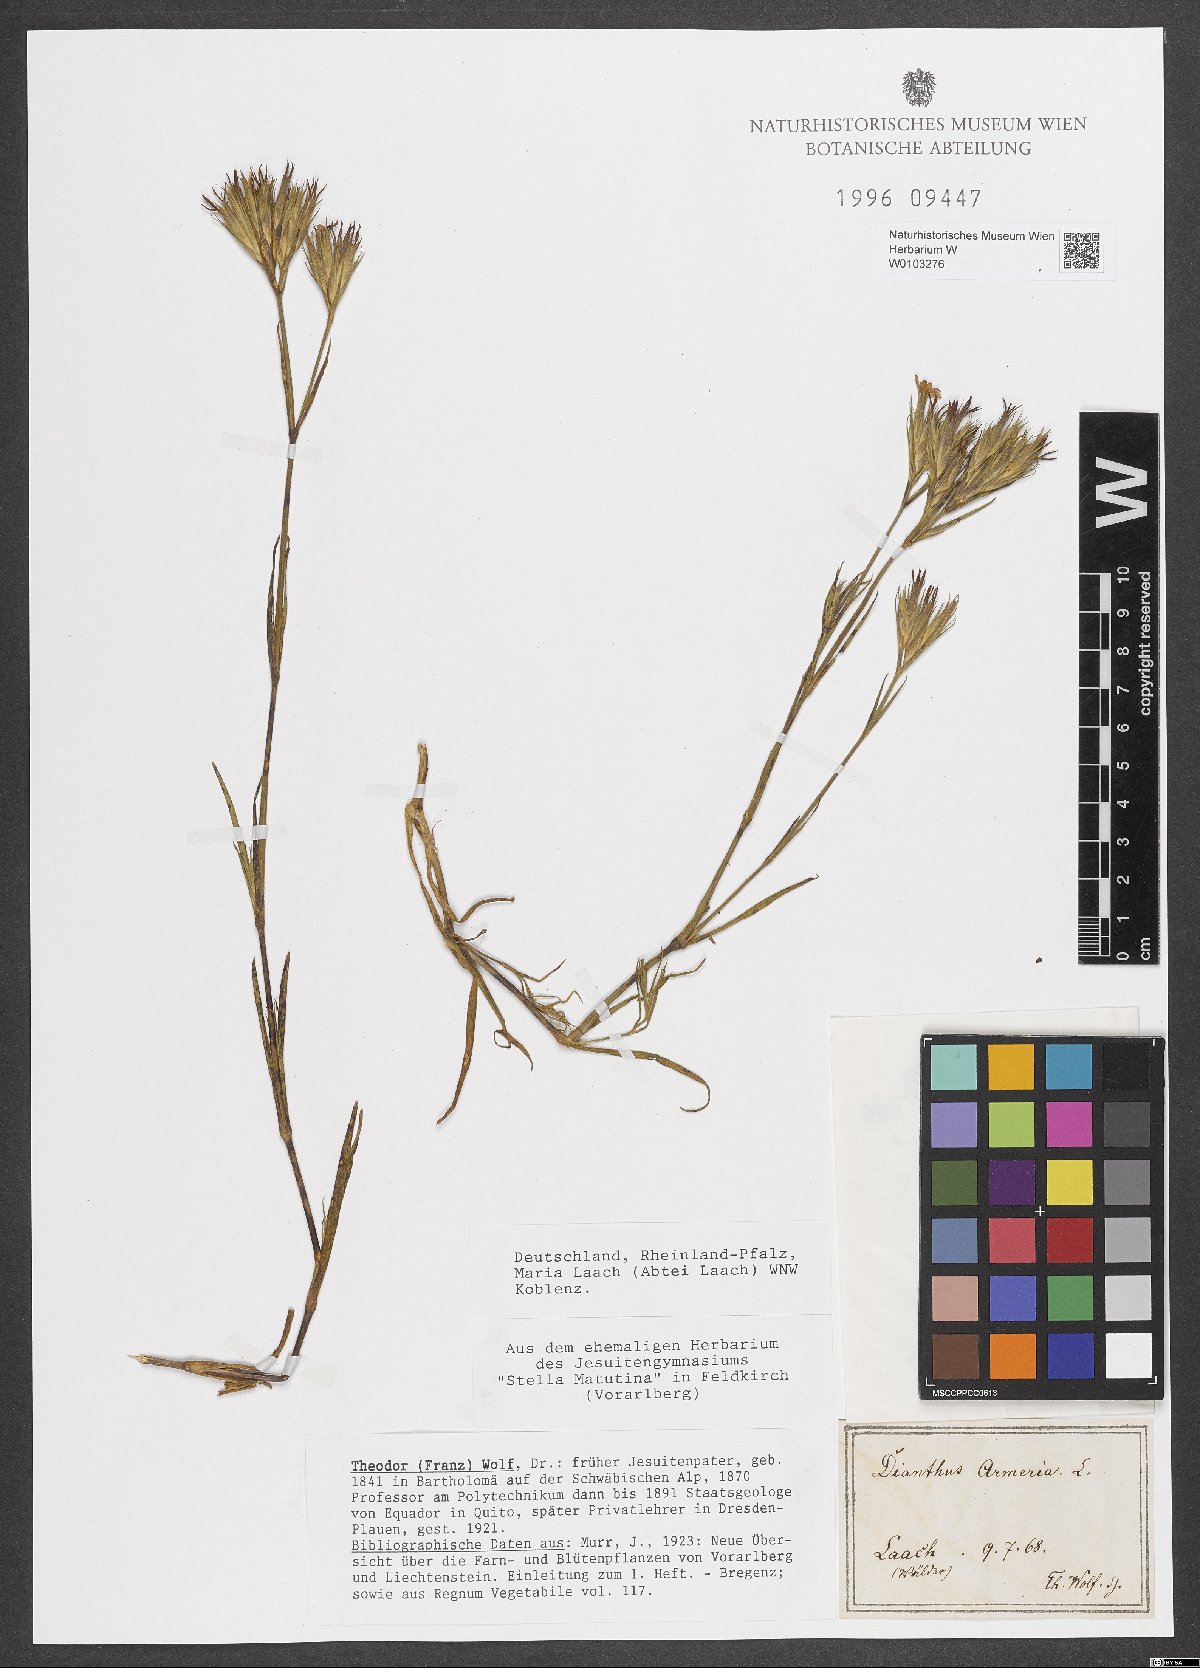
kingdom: Plantae
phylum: Tracheophyta
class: Magnoliopsida
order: Caryophyllales
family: Caryophyllaceae
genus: Dianthus
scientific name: Dianthus armeria
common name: Deptford pink
